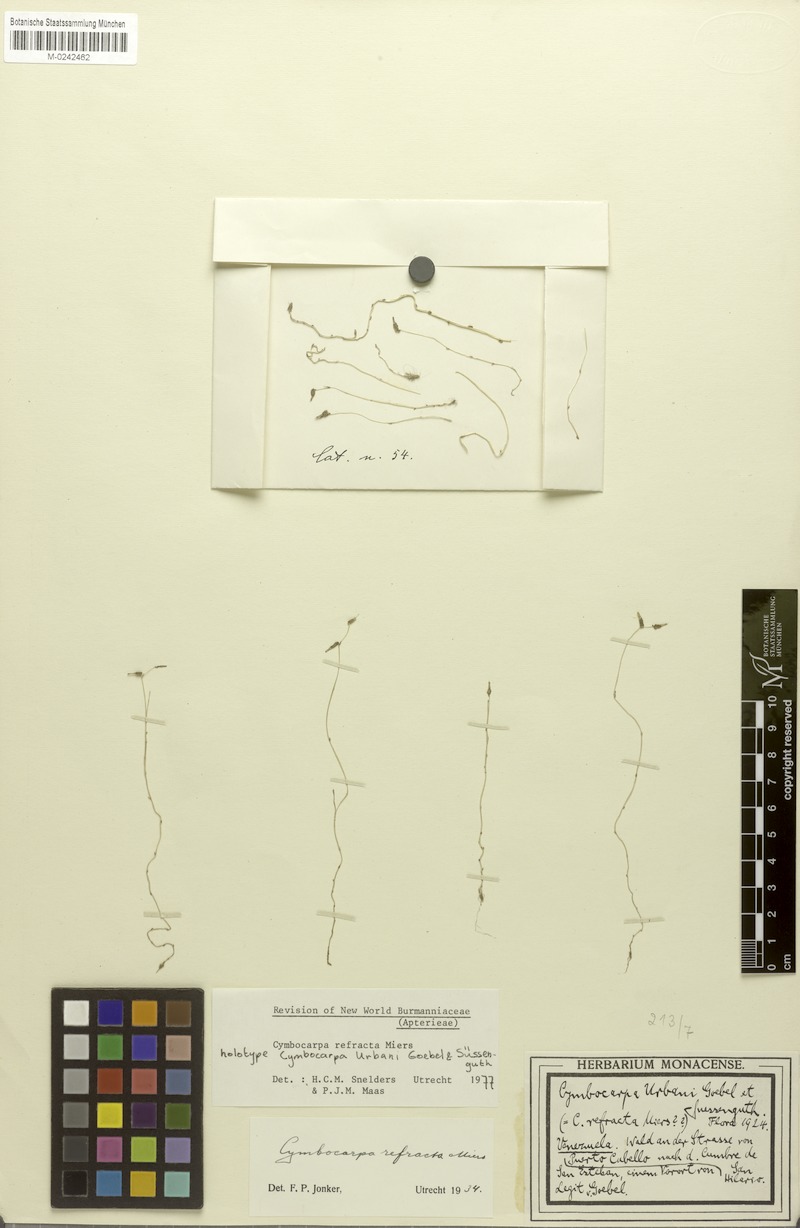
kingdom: Plantae
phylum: Tracheophyta
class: Liliopsida
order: Dioscoreales
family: Burmanniaceae
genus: Gymnosiphon
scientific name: Gymnosiphon refractus
